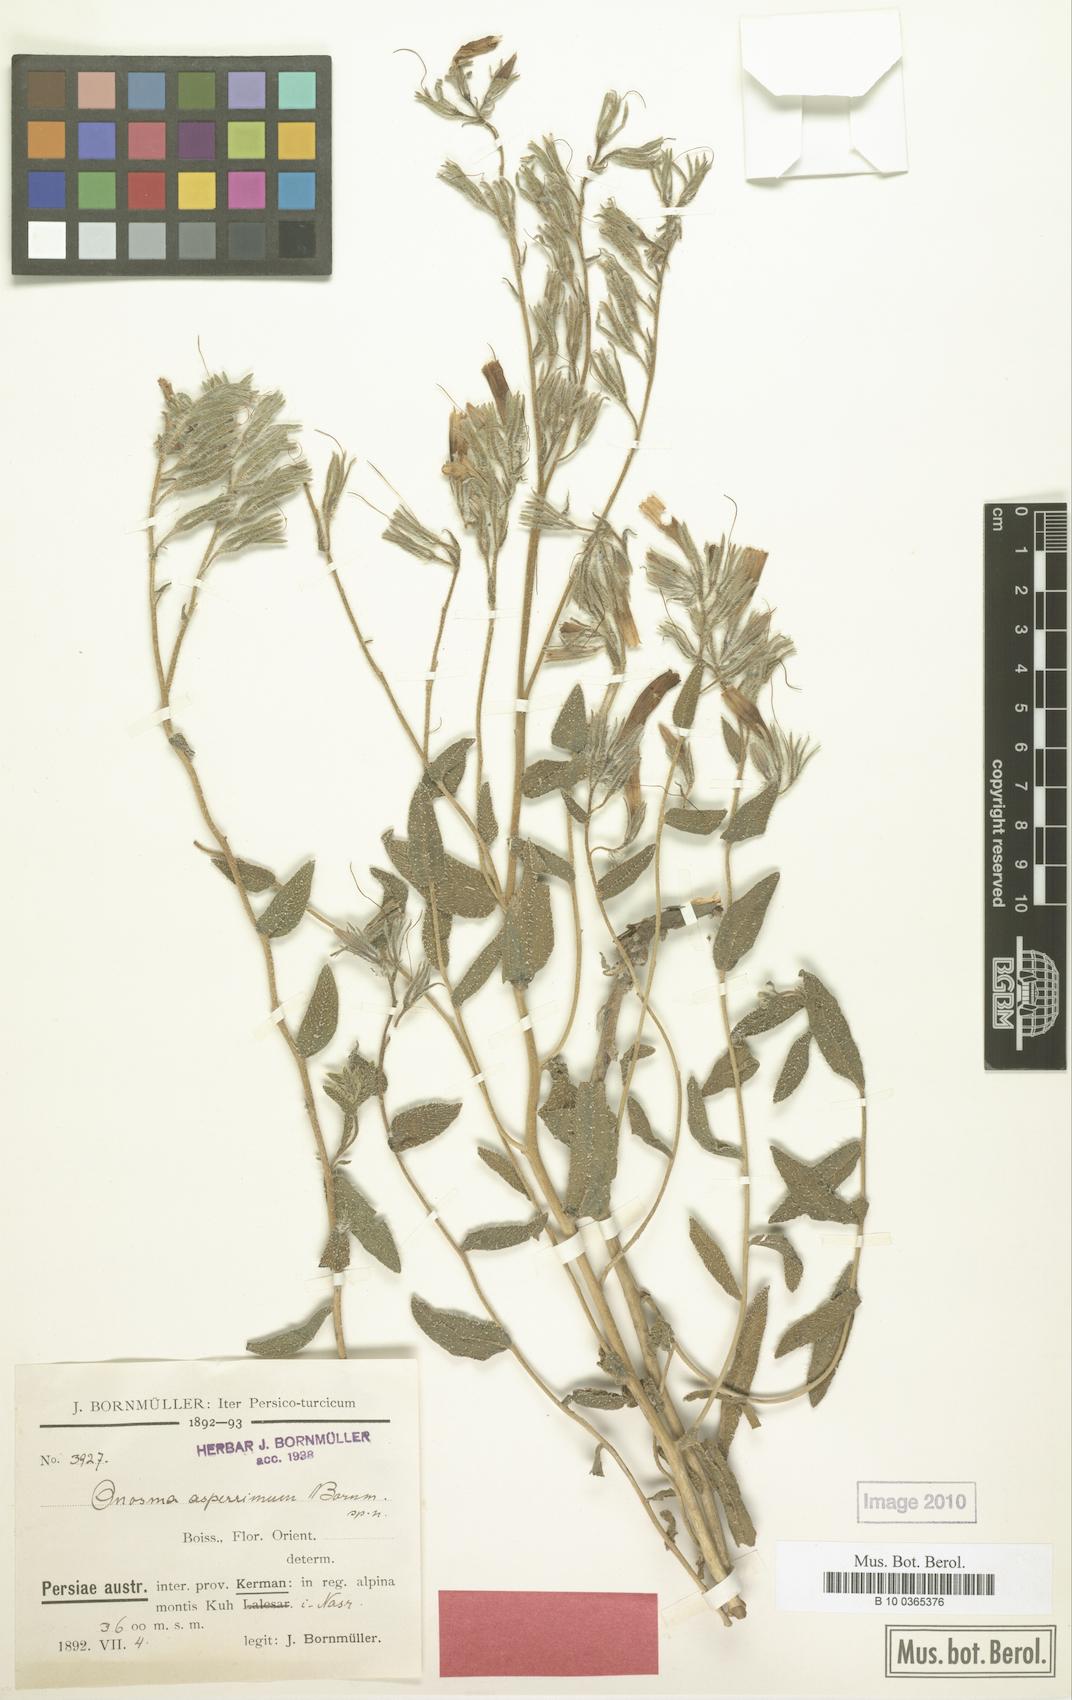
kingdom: Plantae
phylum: Tracheophyta
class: Magnoliopsida
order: Boraginales
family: Boraginaceae
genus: Onosma
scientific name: Onosma asperrima
